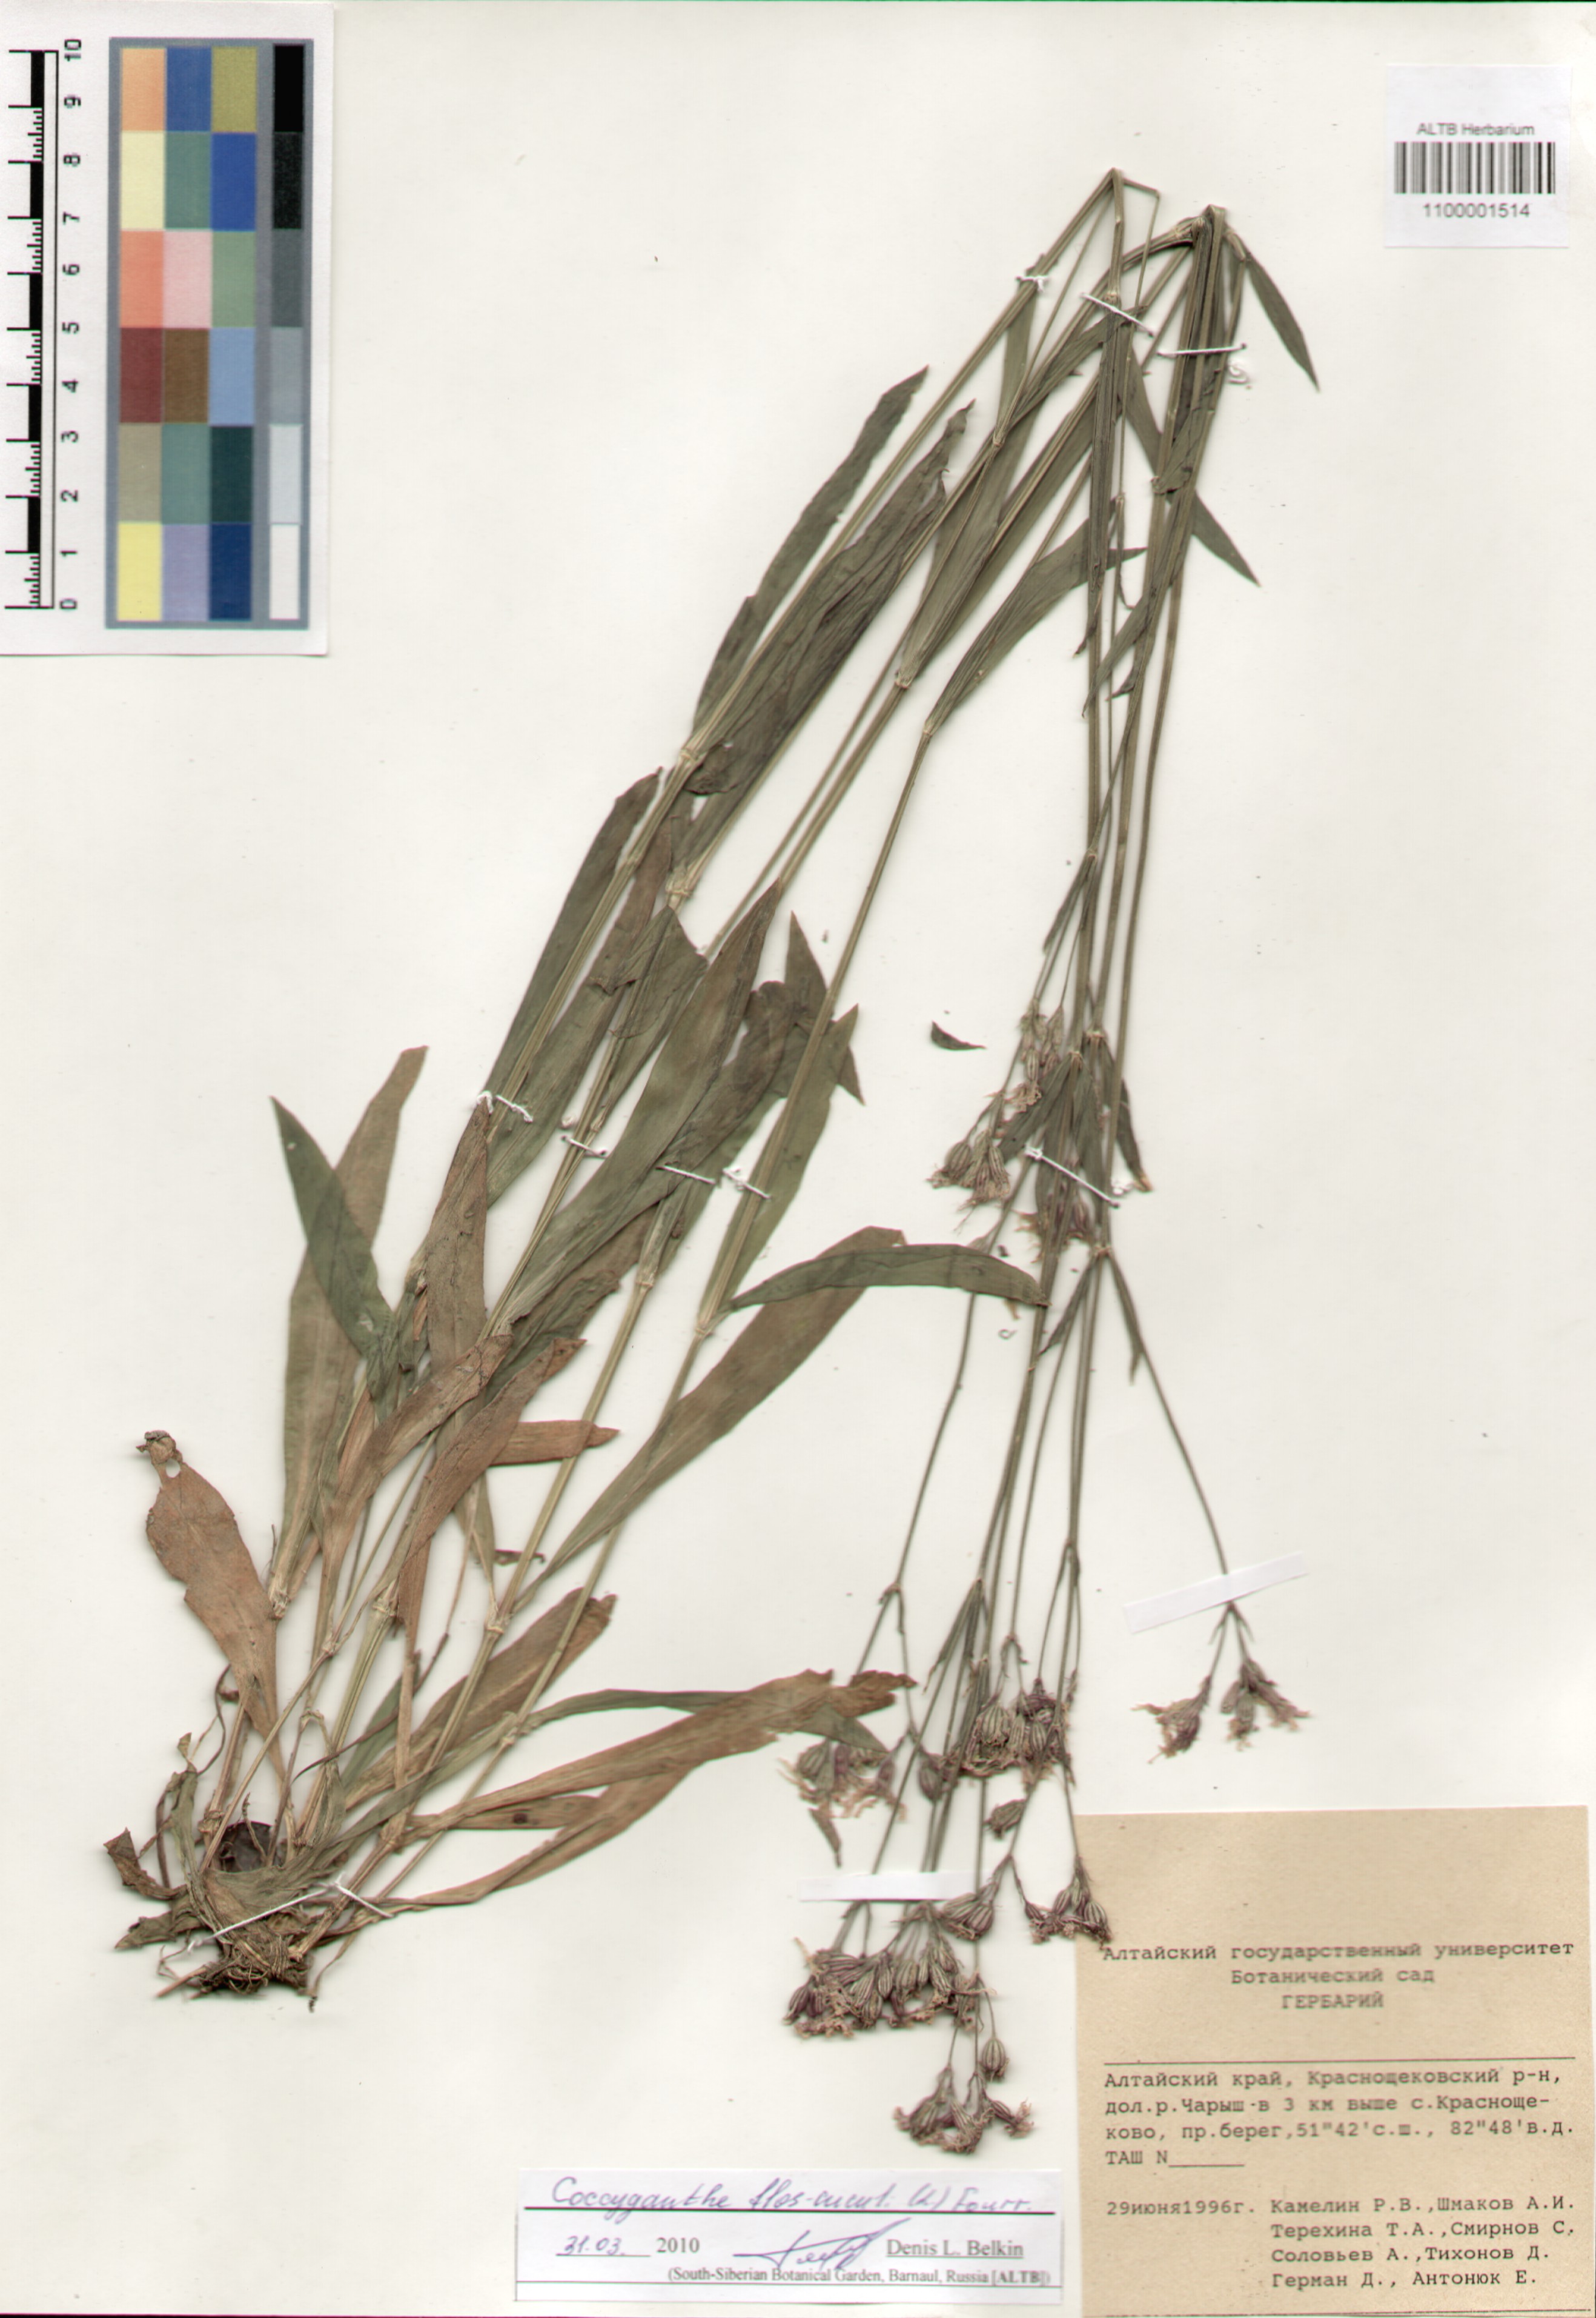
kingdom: Plantae
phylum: Tracheophyta
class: Magnoliopsida
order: Caryophyllales
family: Caryophyllaceae
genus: Silene
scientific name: Silene flos-cuculi
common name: Ragged-robin
